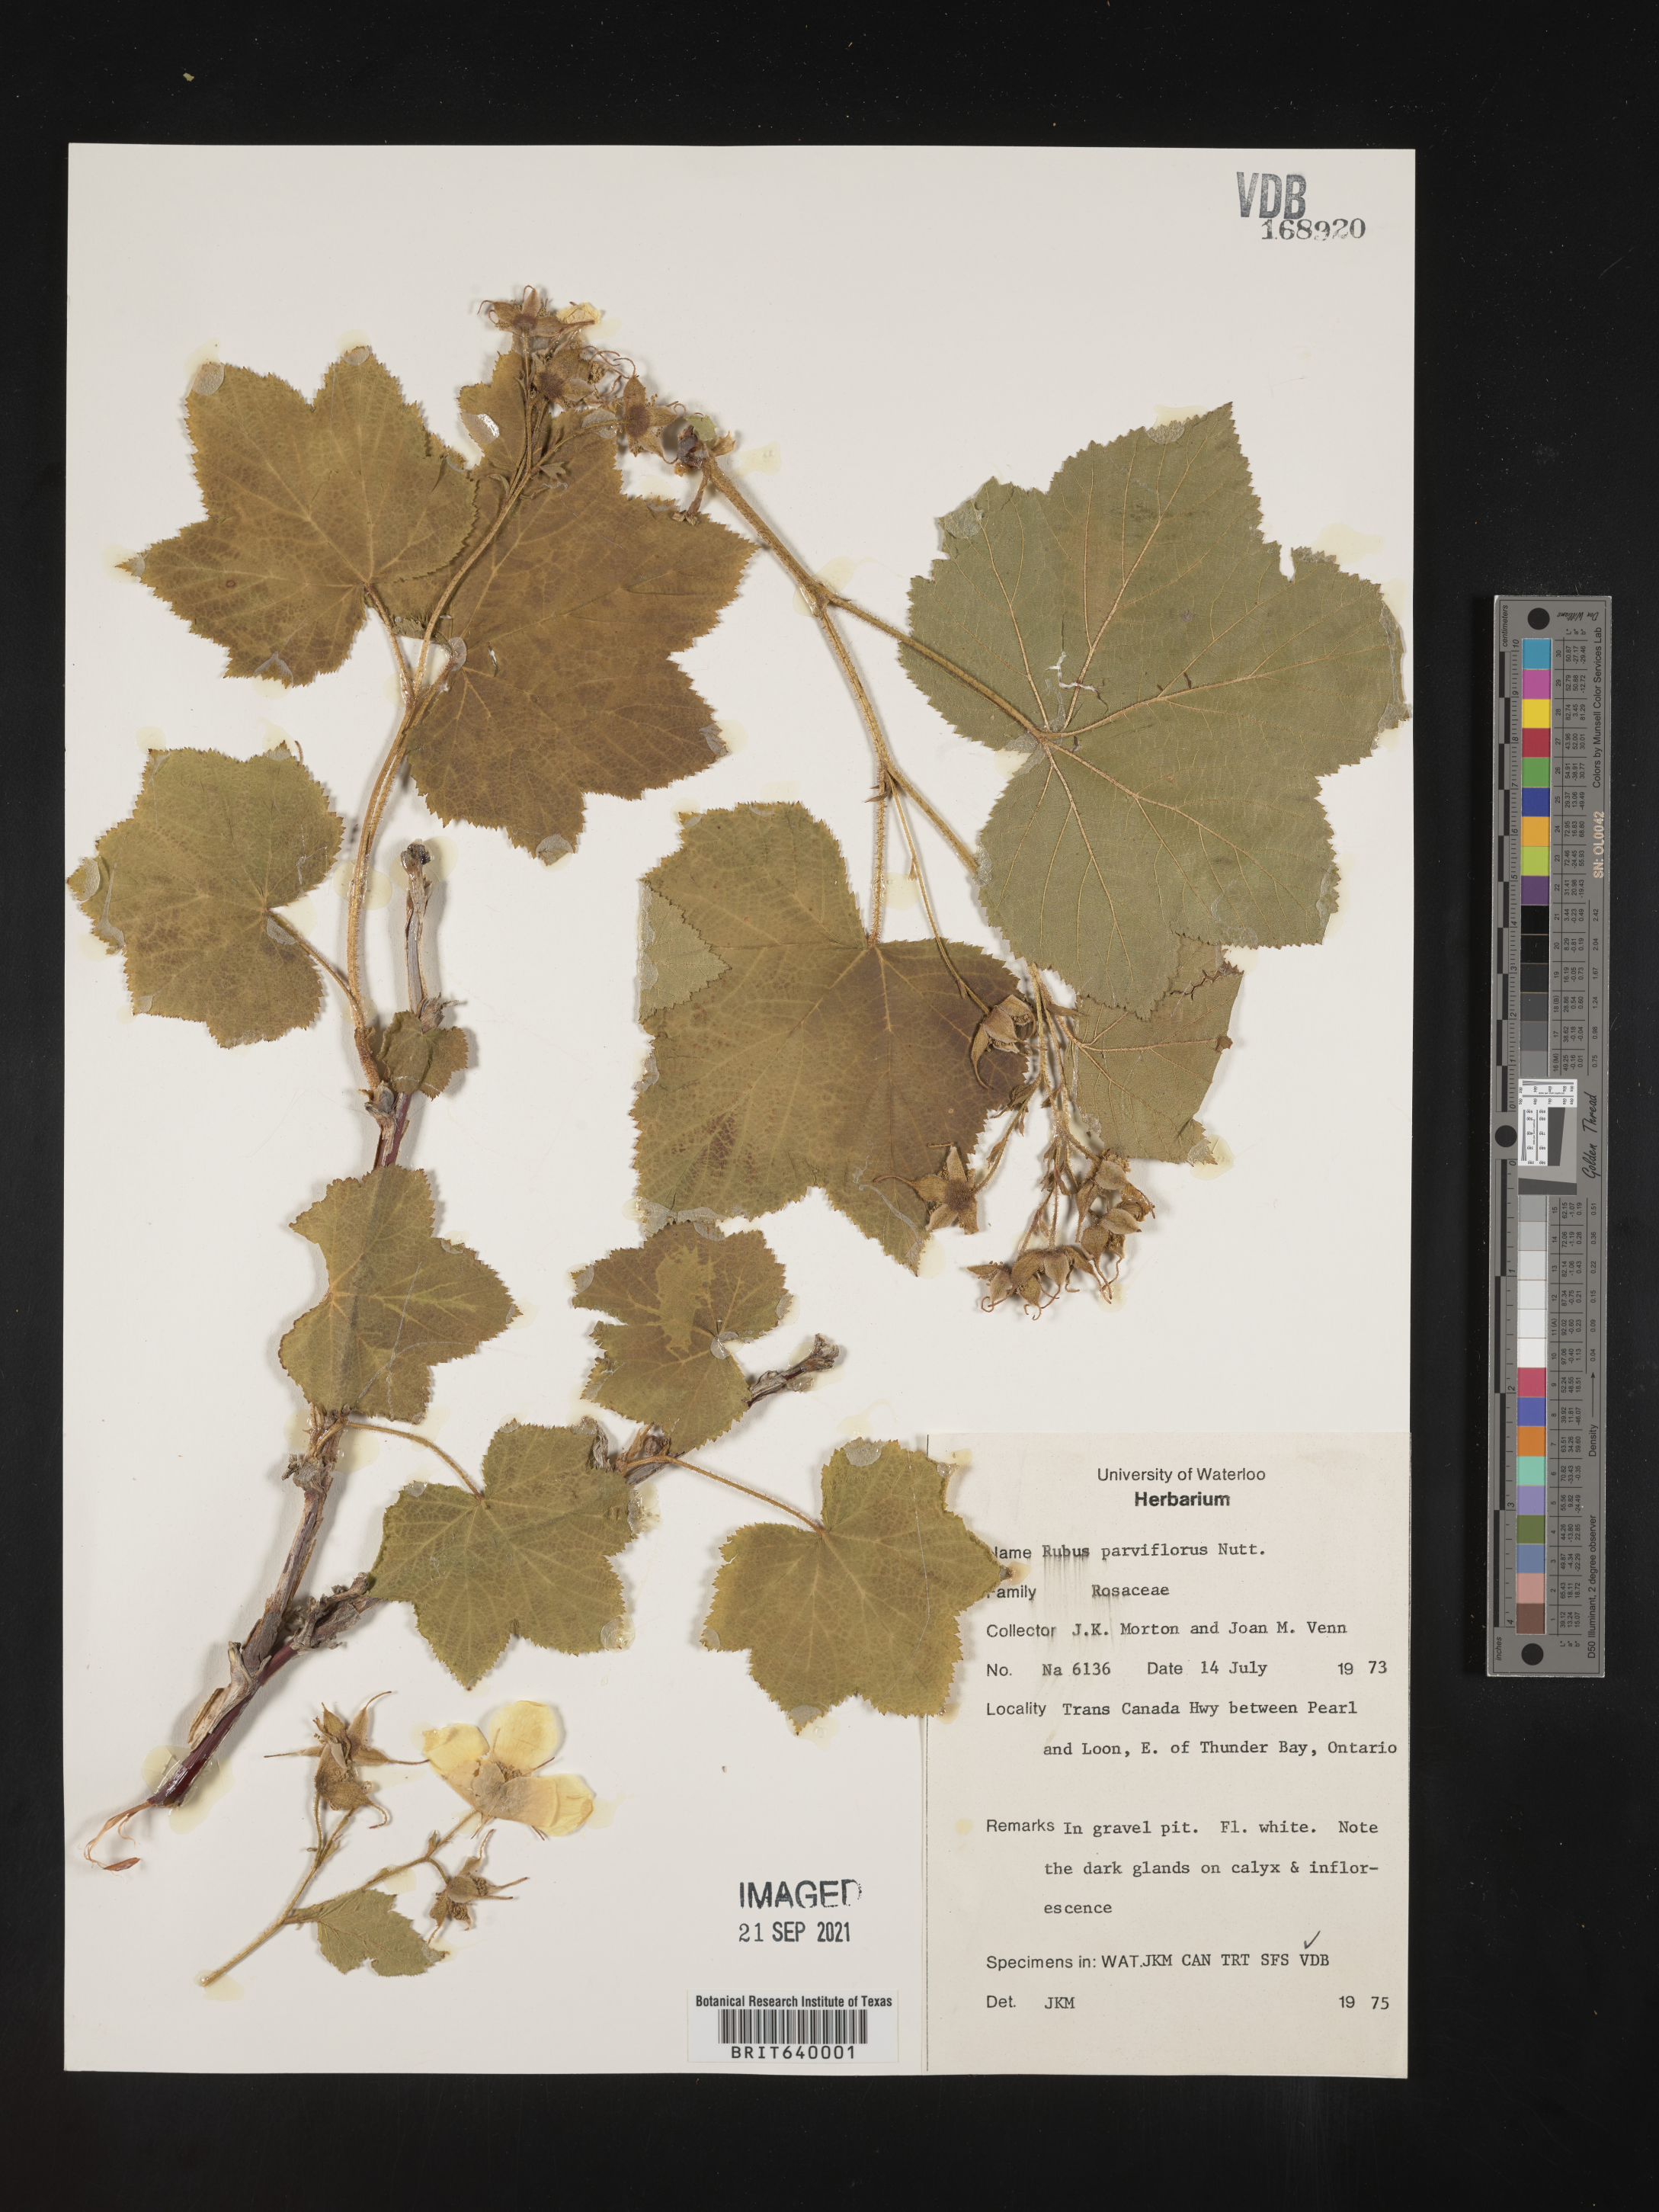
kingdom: Plantae
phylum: Tracheophyta
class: Magnoliopsida
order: Rosales
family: Rosaceae
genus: Rubus
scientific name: Rubus
